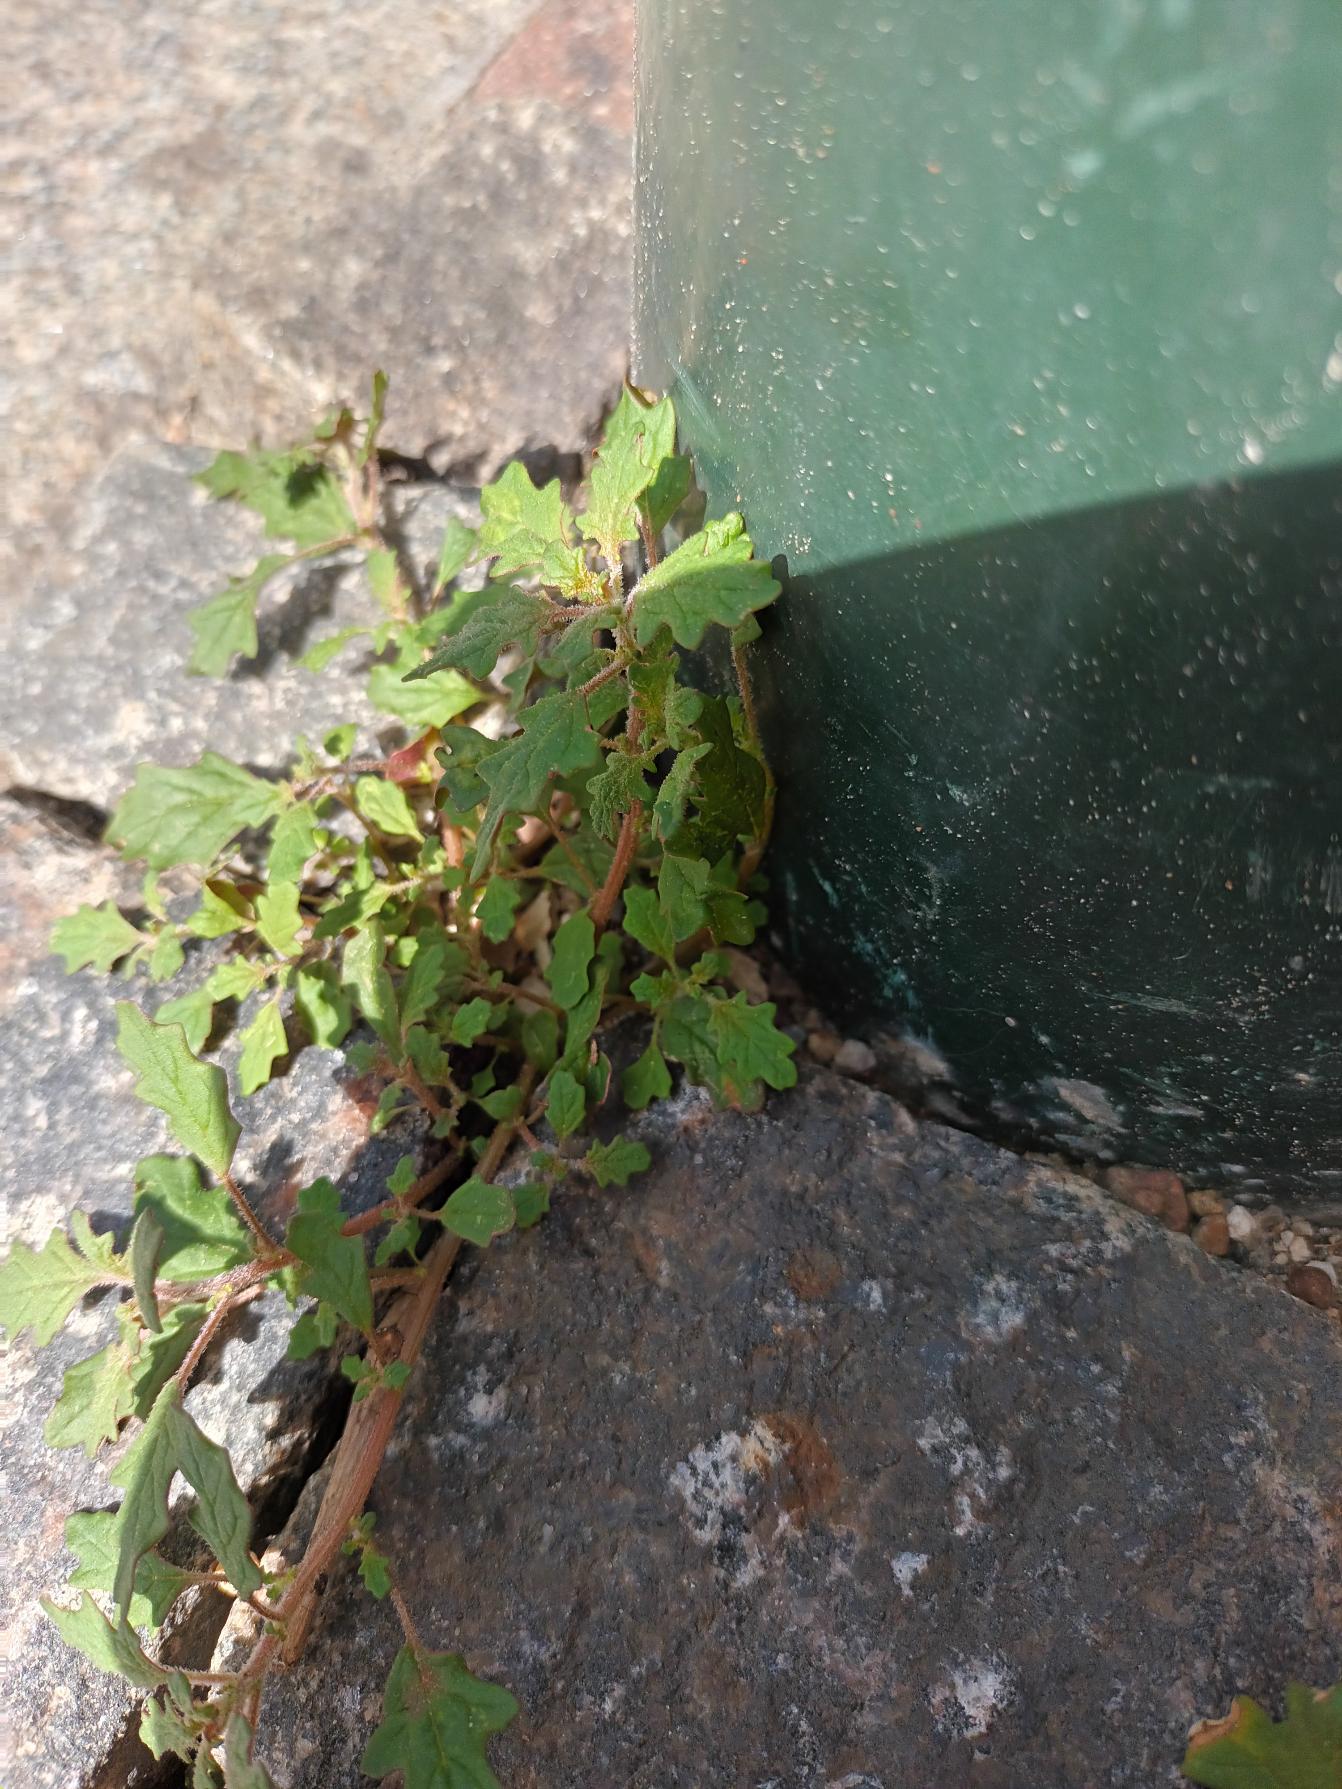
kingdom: Plantae
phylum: Tracheophyta
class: Magnoliopsida
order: Caryophyllales
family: Amaranthaceae
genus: Dysphania
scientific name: Dysphania pumilio
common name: Dværg-gåsefod
